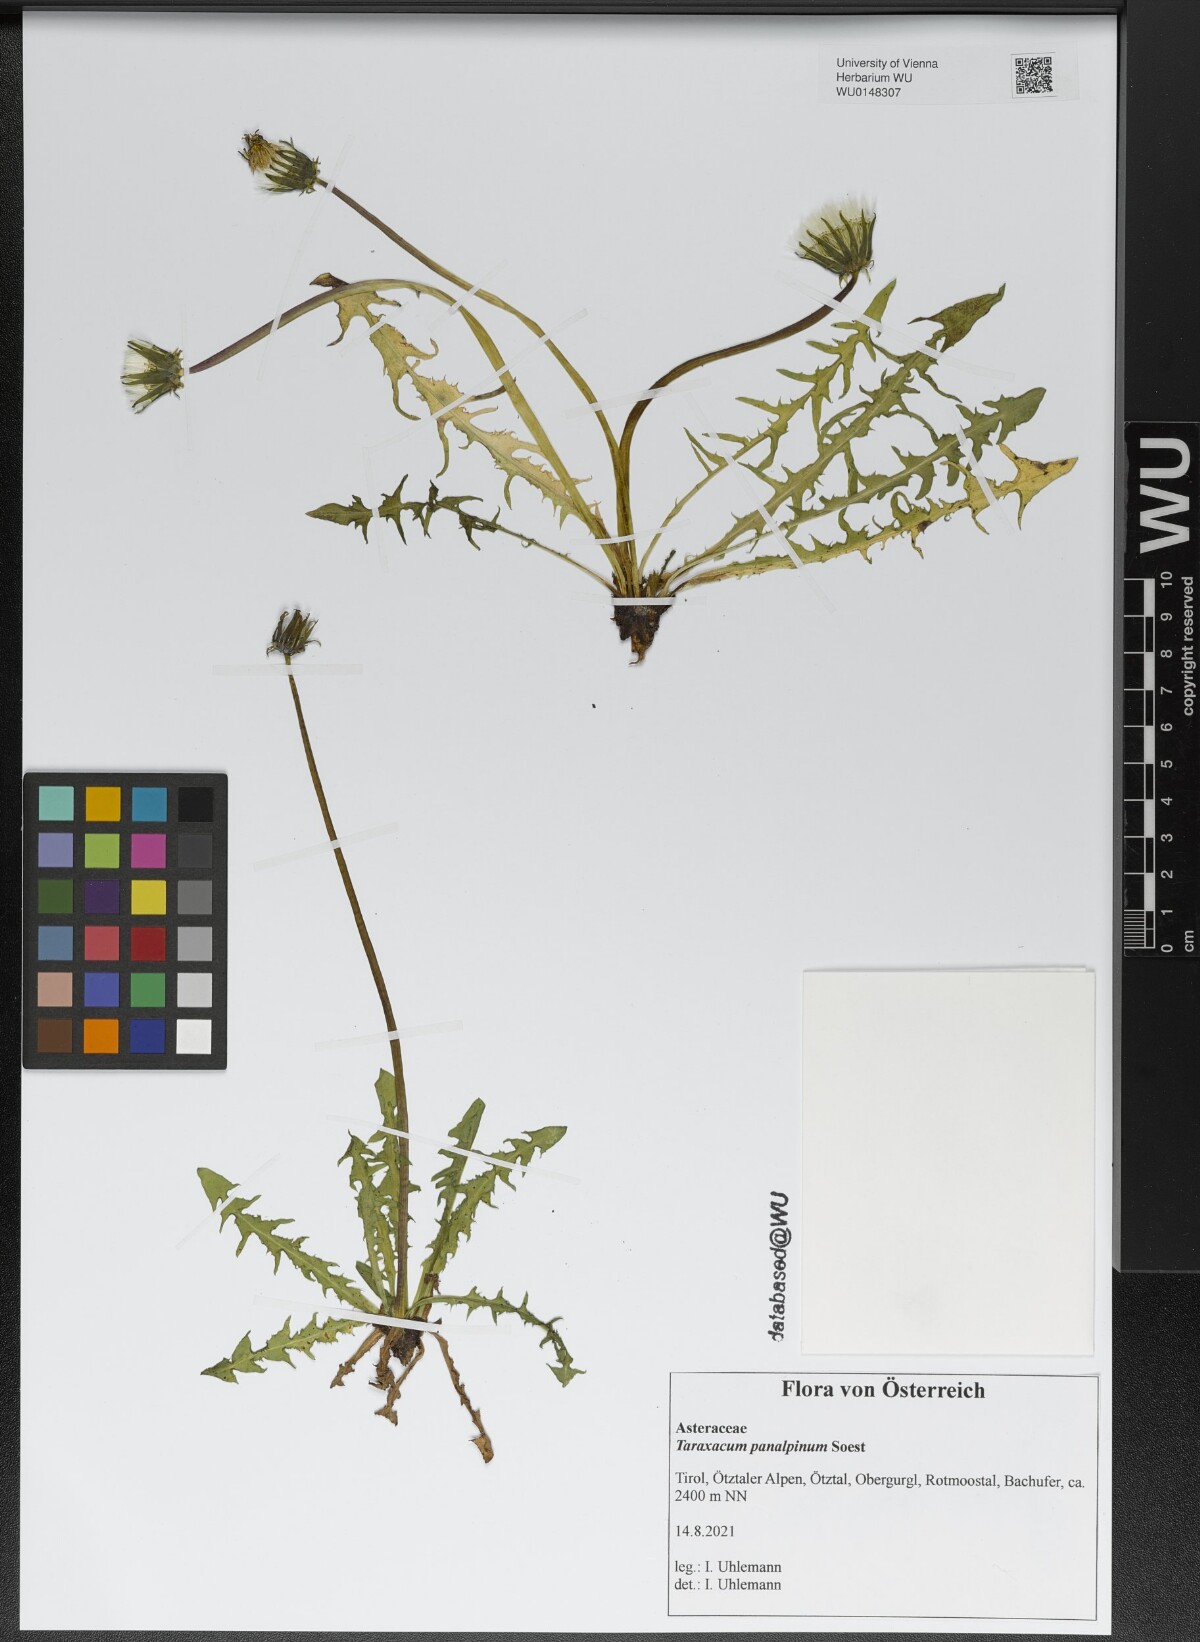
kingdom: Plantae
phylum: Tracheophyta
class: Magnoliopsida
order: Asterales
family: Asteraceae
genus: Taraxacum
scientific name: Taraxacum panalpinum
